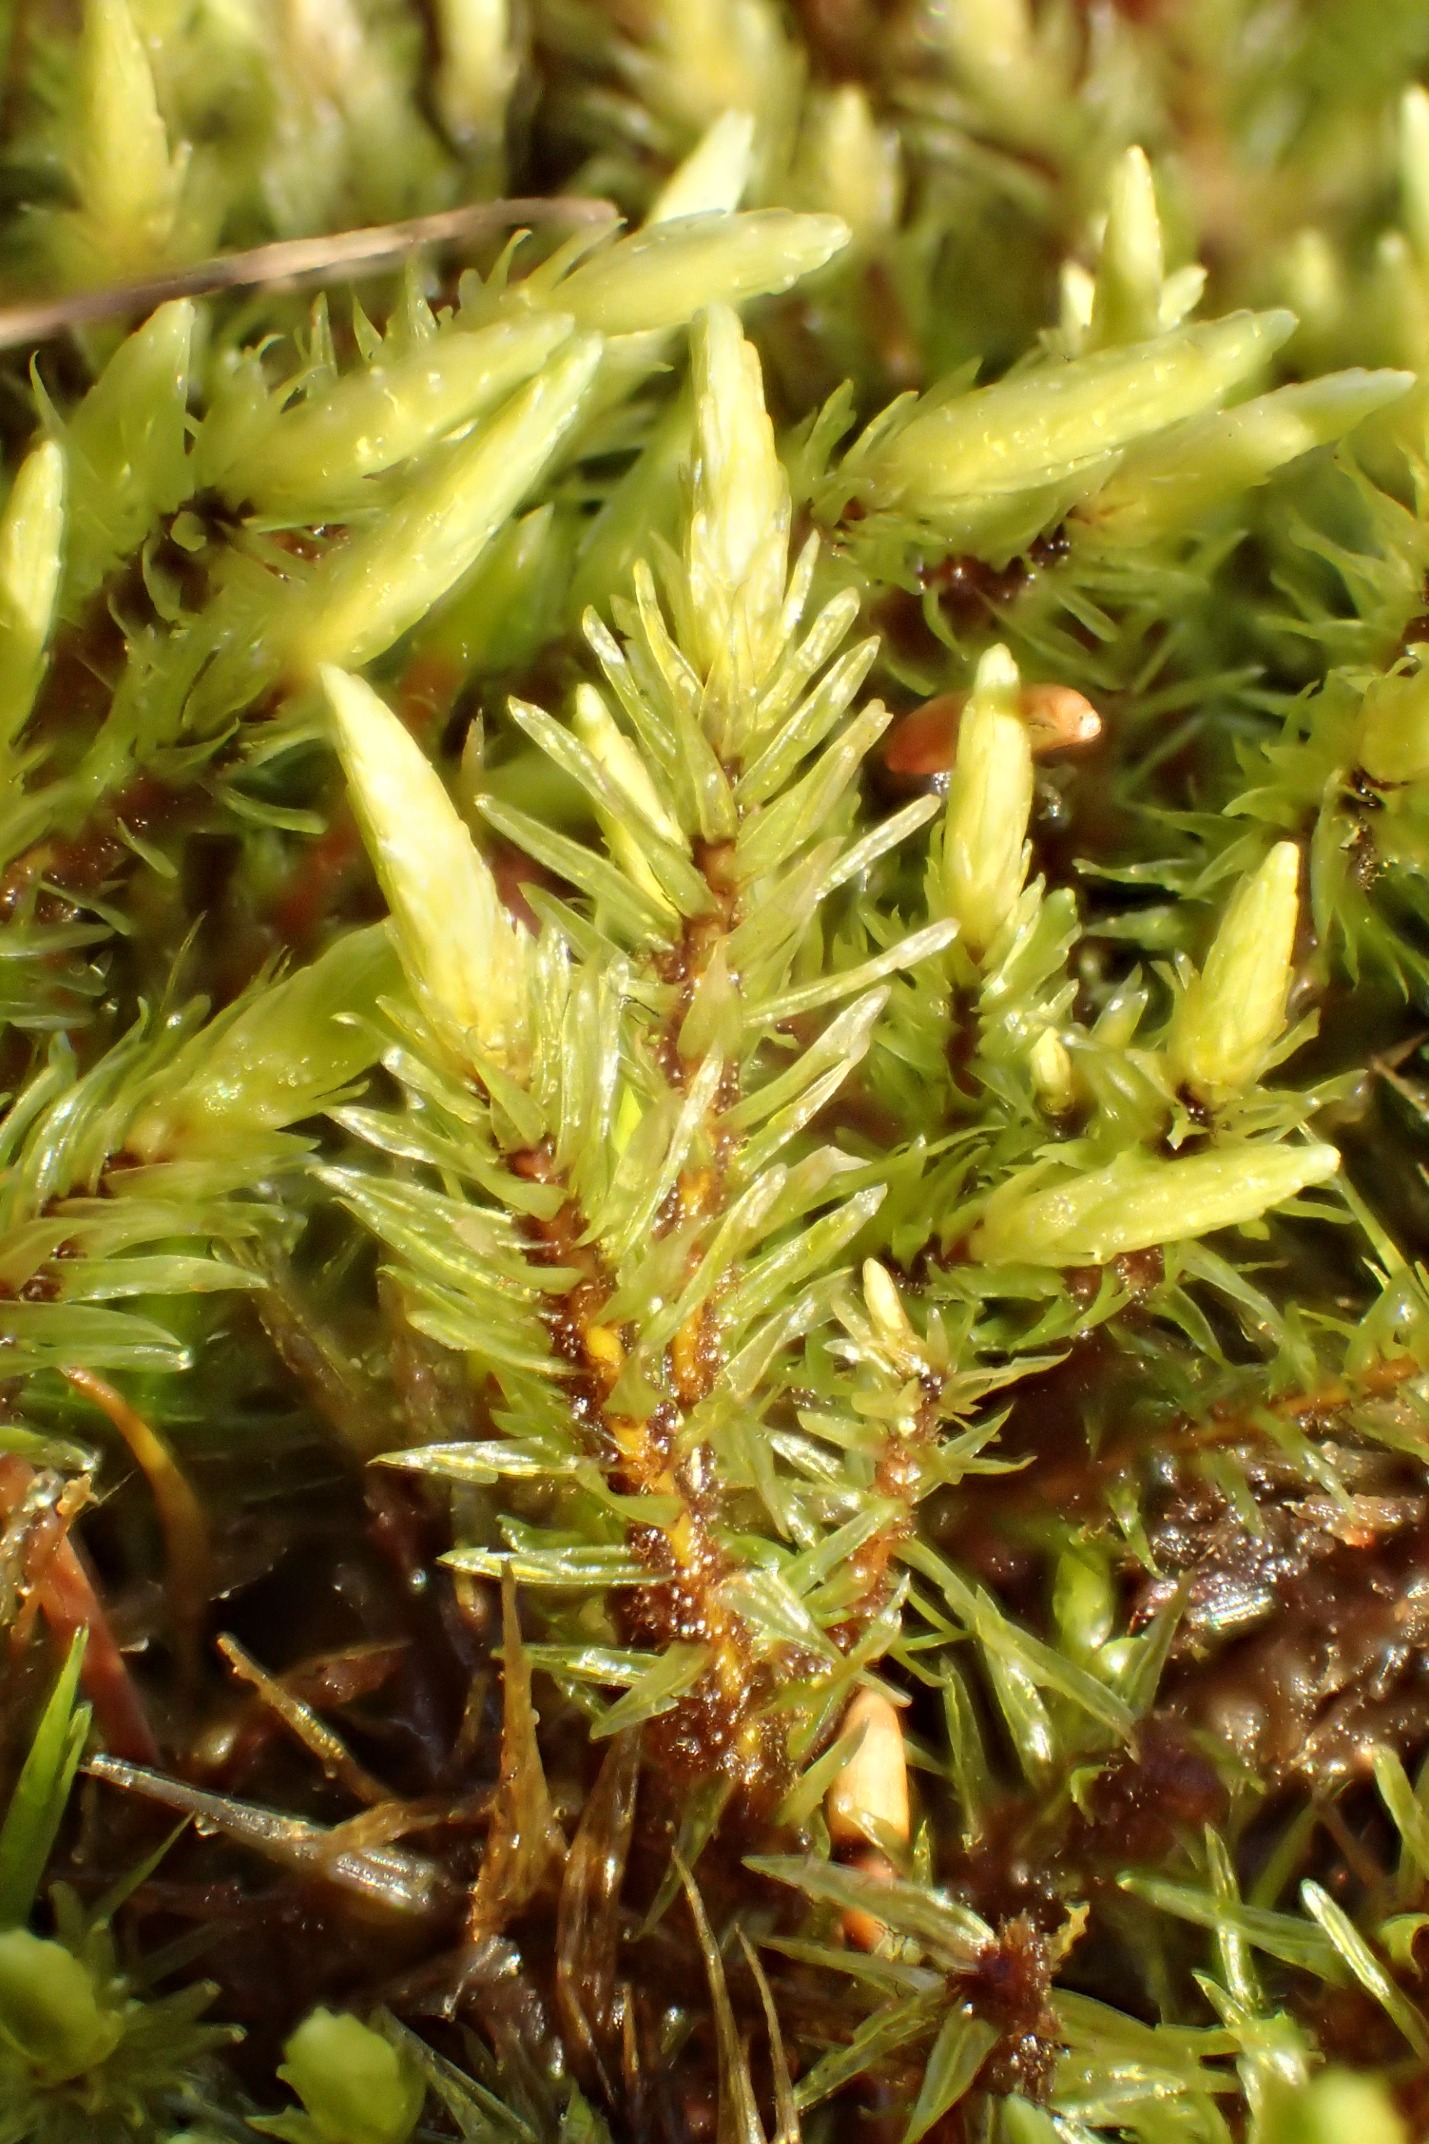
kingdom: Plantae
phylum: Bryophyta
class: Bryopsida
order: Aulacomniales
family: Aulacomniaceae
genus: Aulacomnium
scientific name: Aulacomnium palustre
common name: Almindelig filtmos
